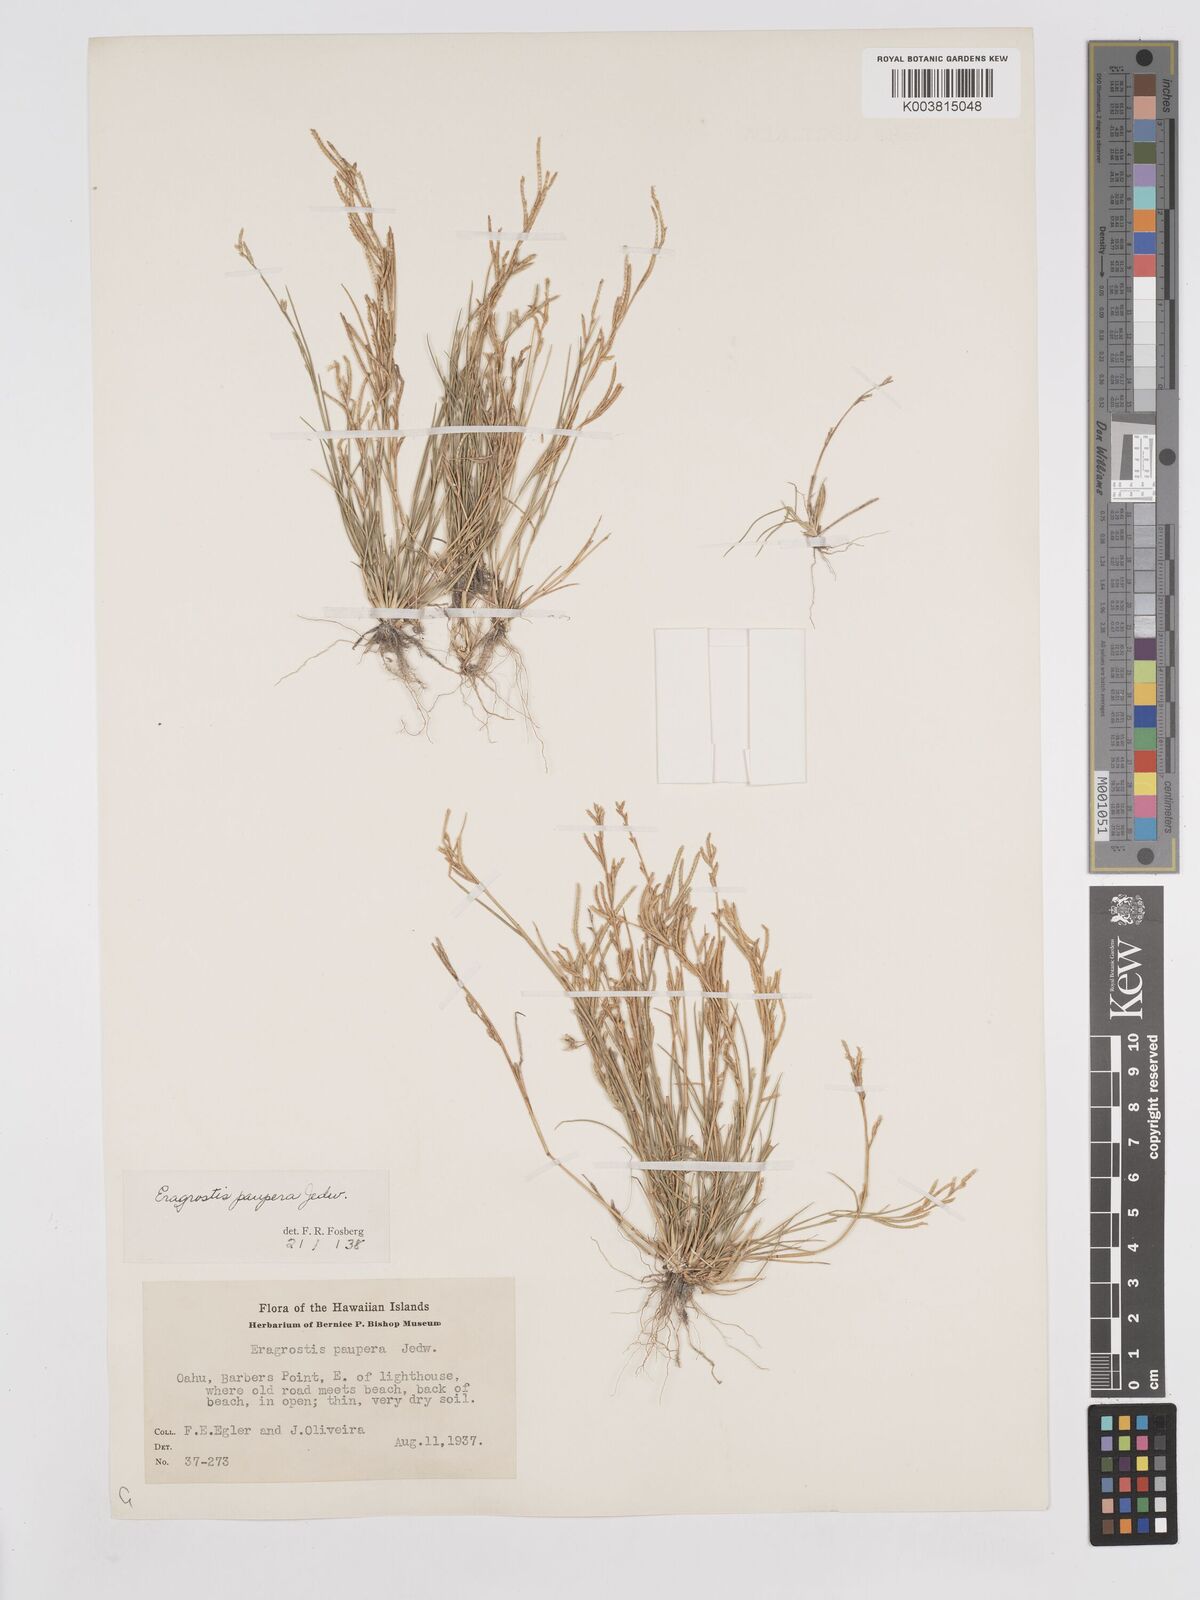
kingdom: Plantae
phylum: Tracheophyta
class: Liliopsida
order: Poales
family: Poaceae
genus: Eragrostis
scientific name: Eragrostis paupera
